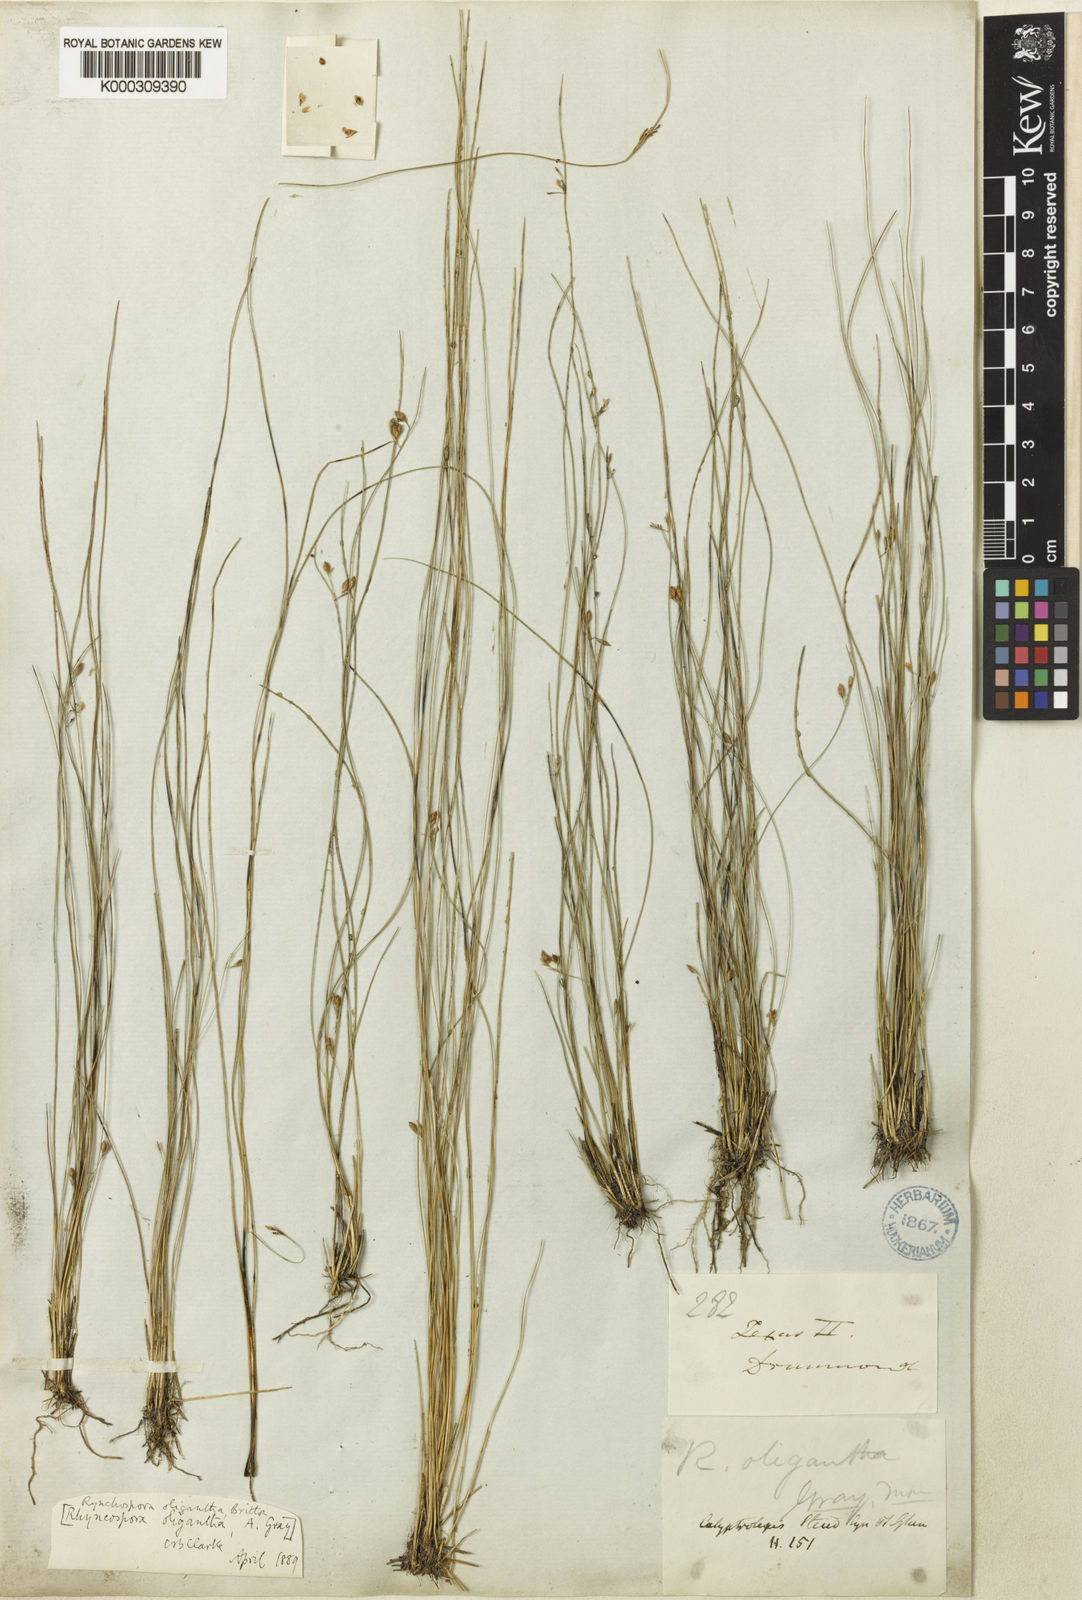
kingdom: Plantae
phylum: Tracheophyta
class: Liliopsida
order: Poales
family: Cyperaceae
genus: Rhynchospora
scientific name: Rhynchospora oligantha
